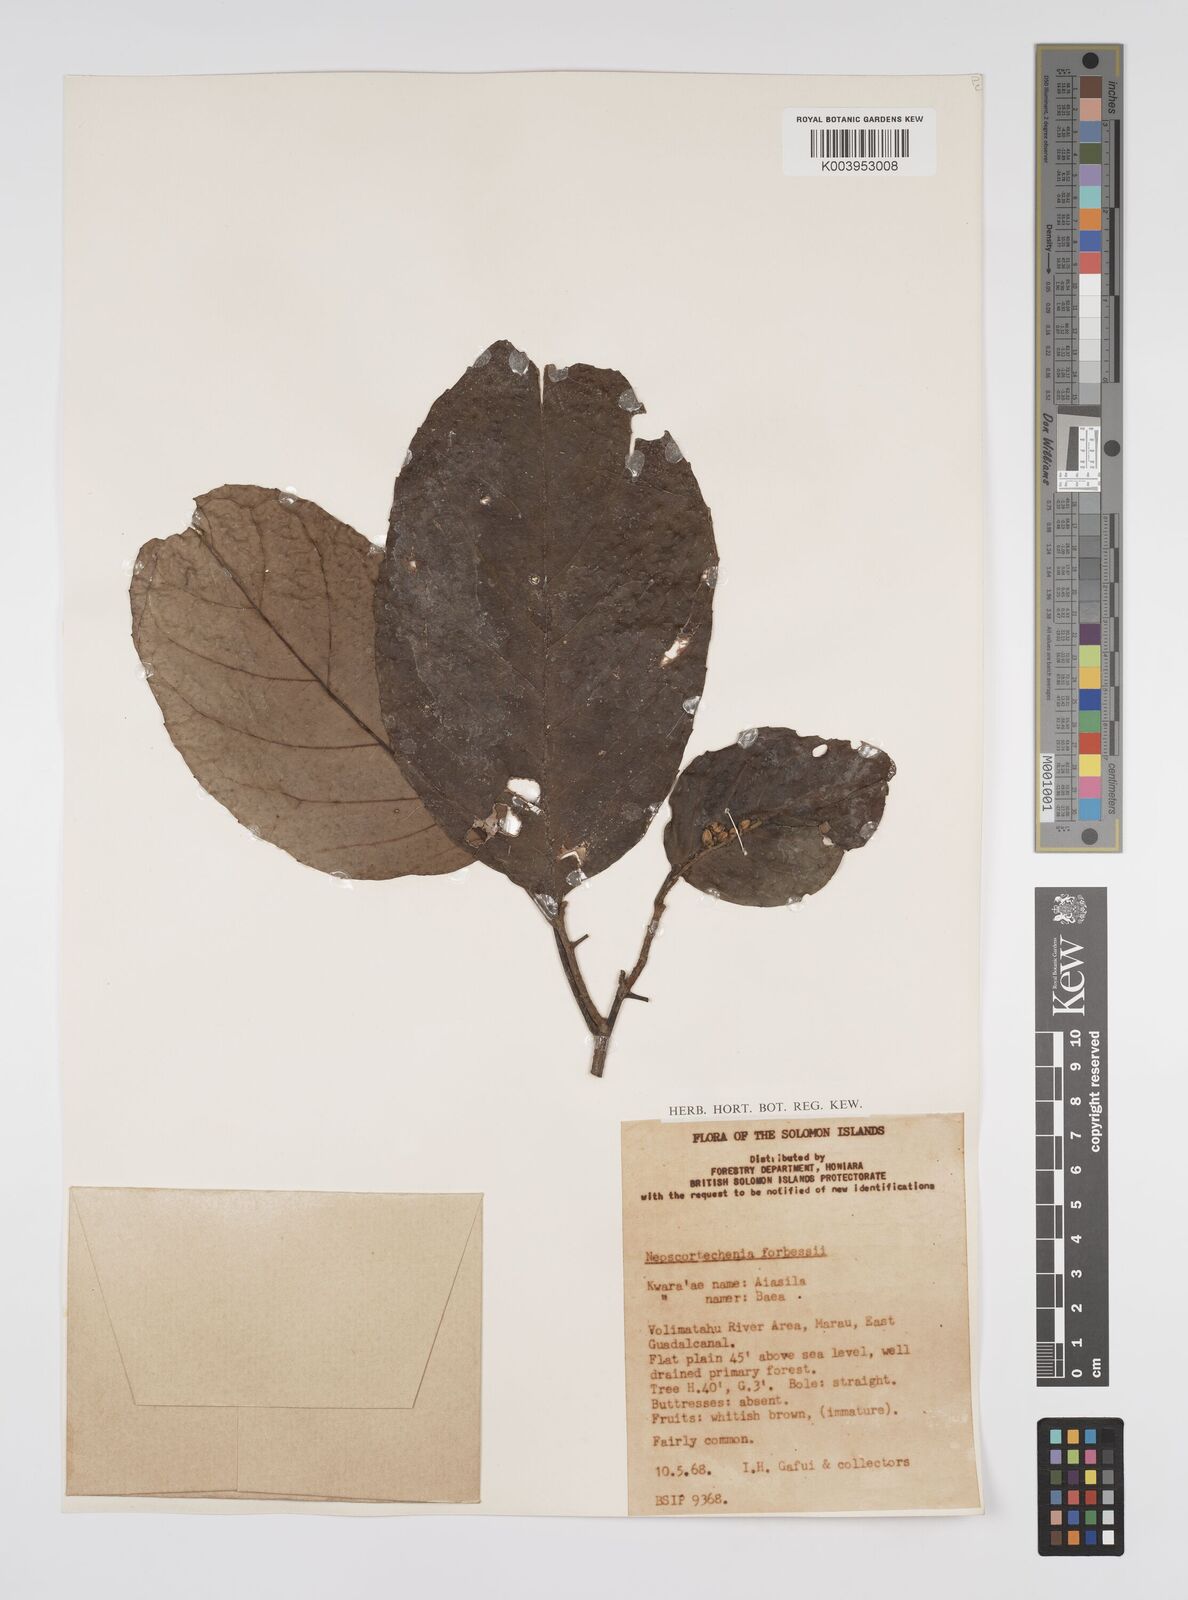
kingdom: Plantae
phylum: Tracheophyta
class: Magnoliopsida
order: Malpighiales
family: Euphorbiaceae
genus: Neoscortechinia
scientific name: Neoscortechinia forbesii
